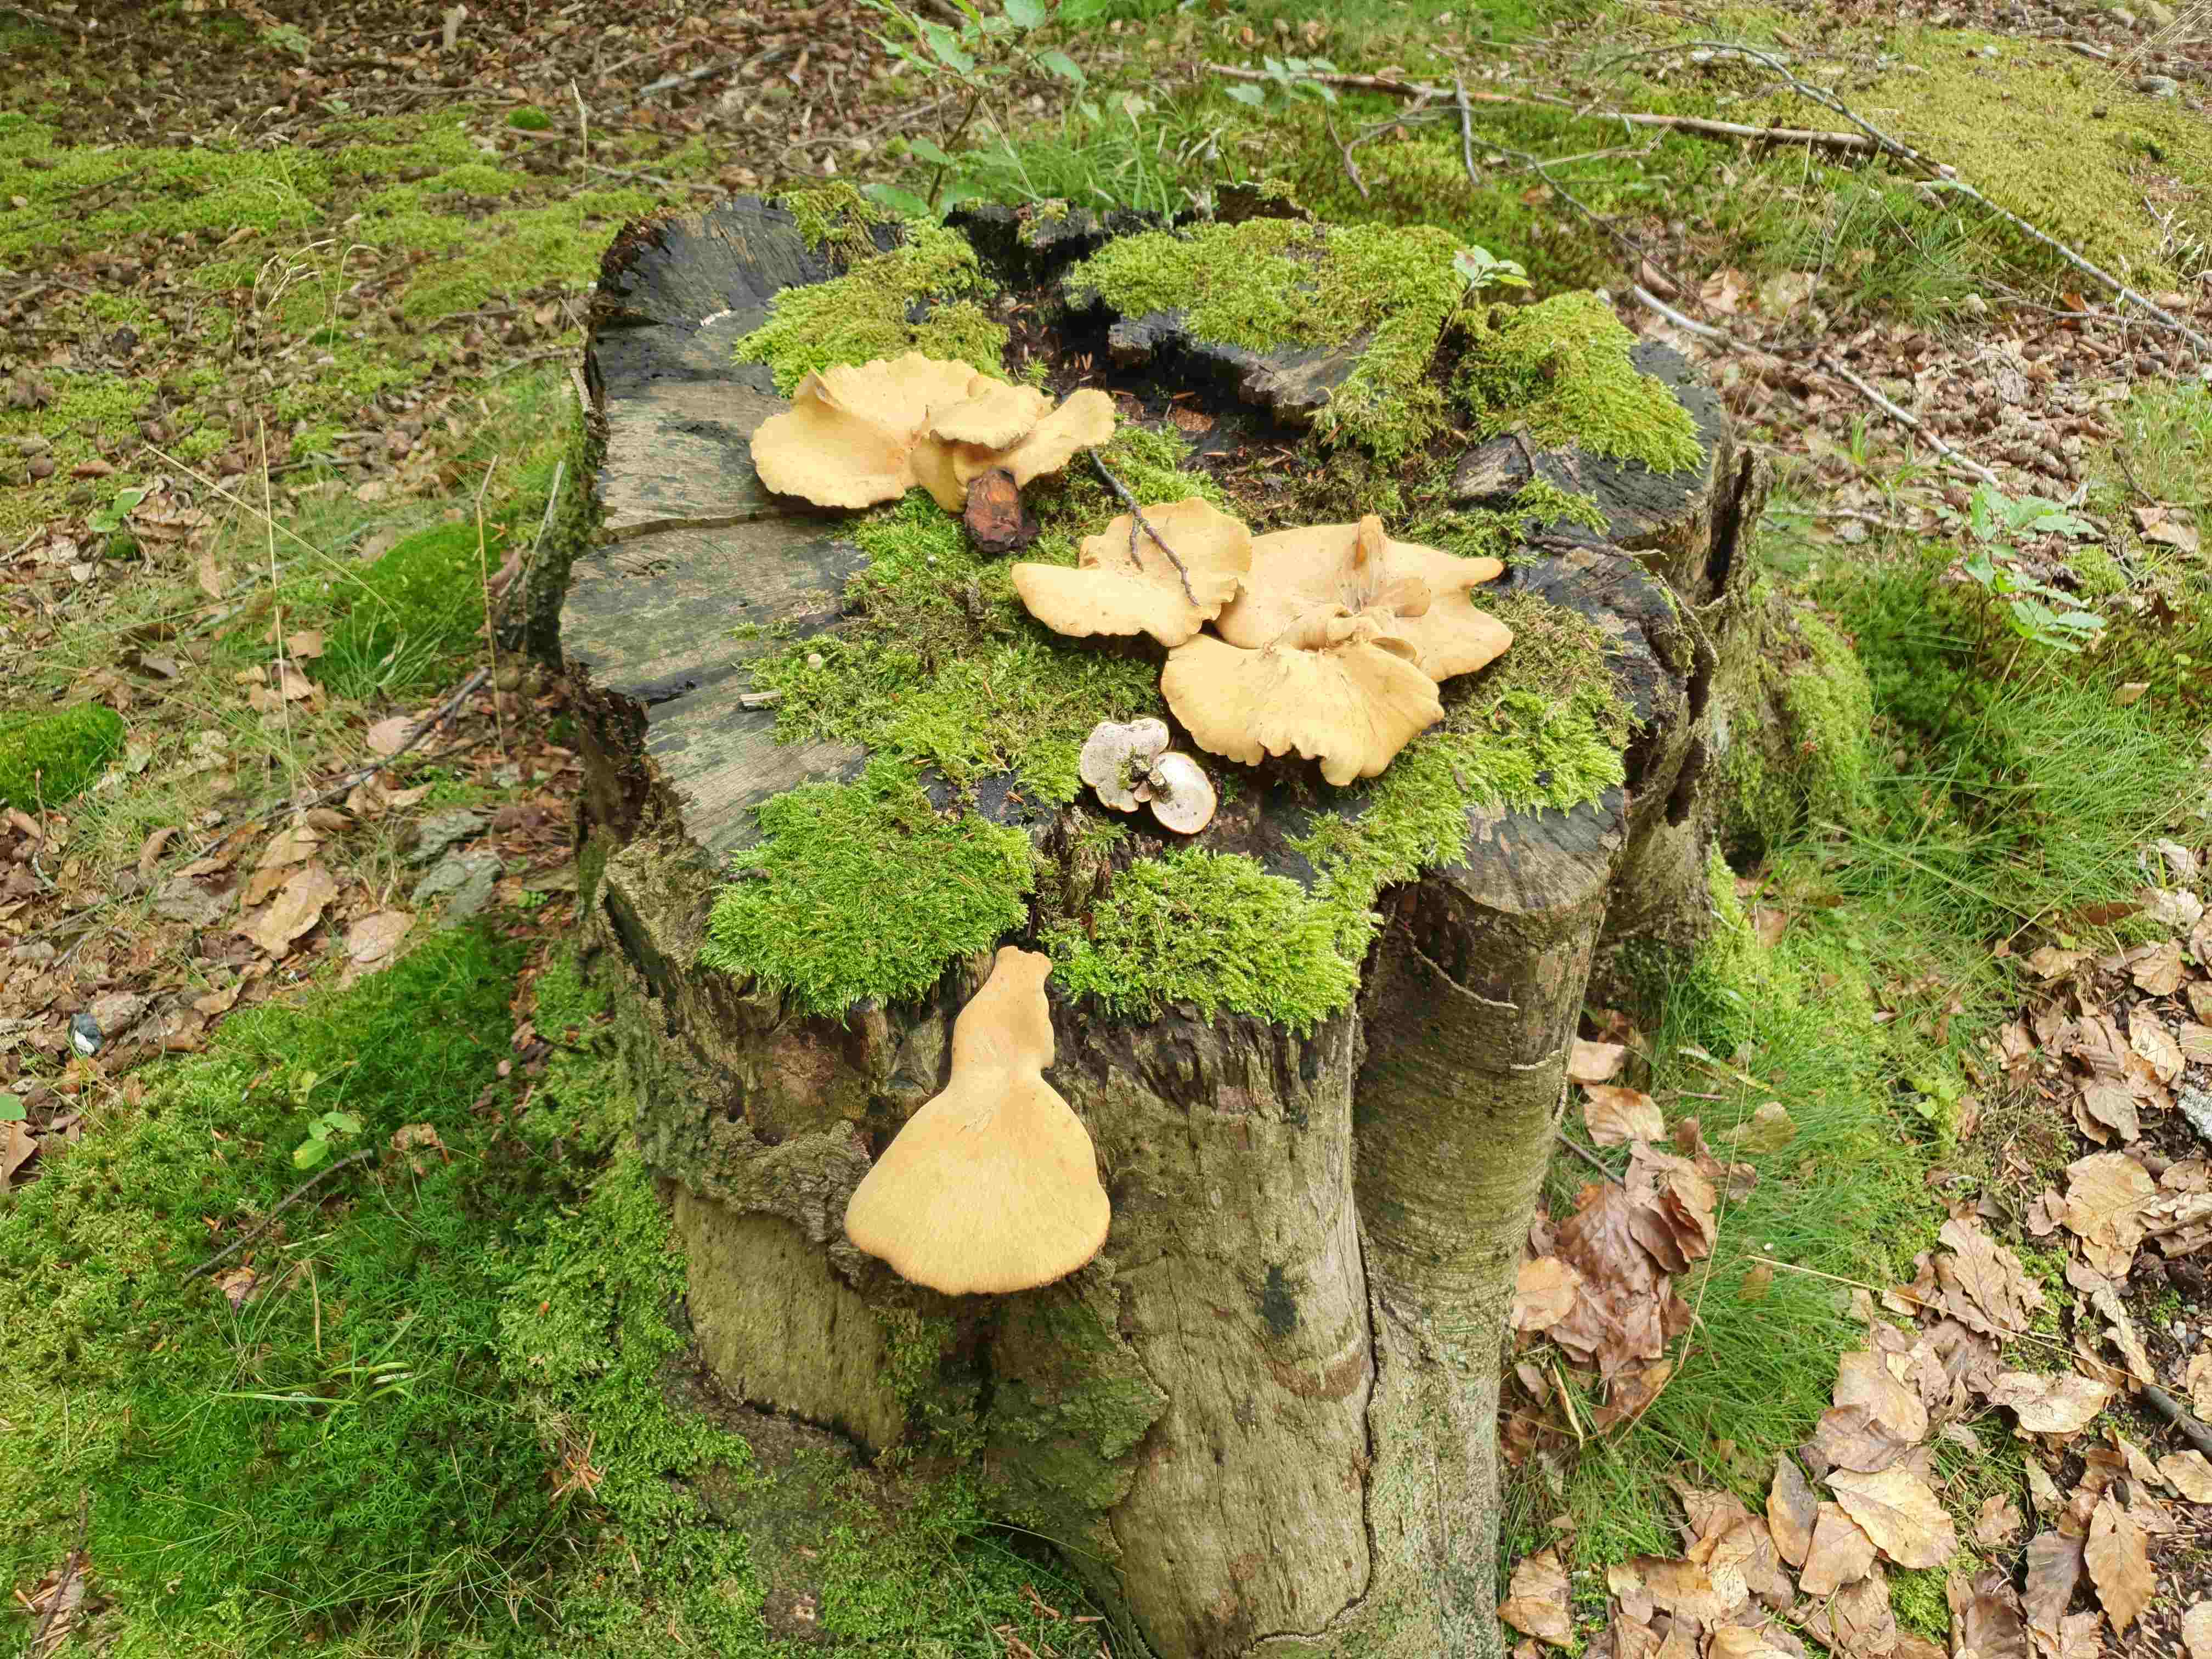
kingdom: Fungi
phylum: Basidiomycota
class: Agaricomycetes
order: Polyporales
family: Polyporaceae
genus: Cerioporus
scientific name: Cerioporus varius
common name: foranderlig stilkporesvamp
